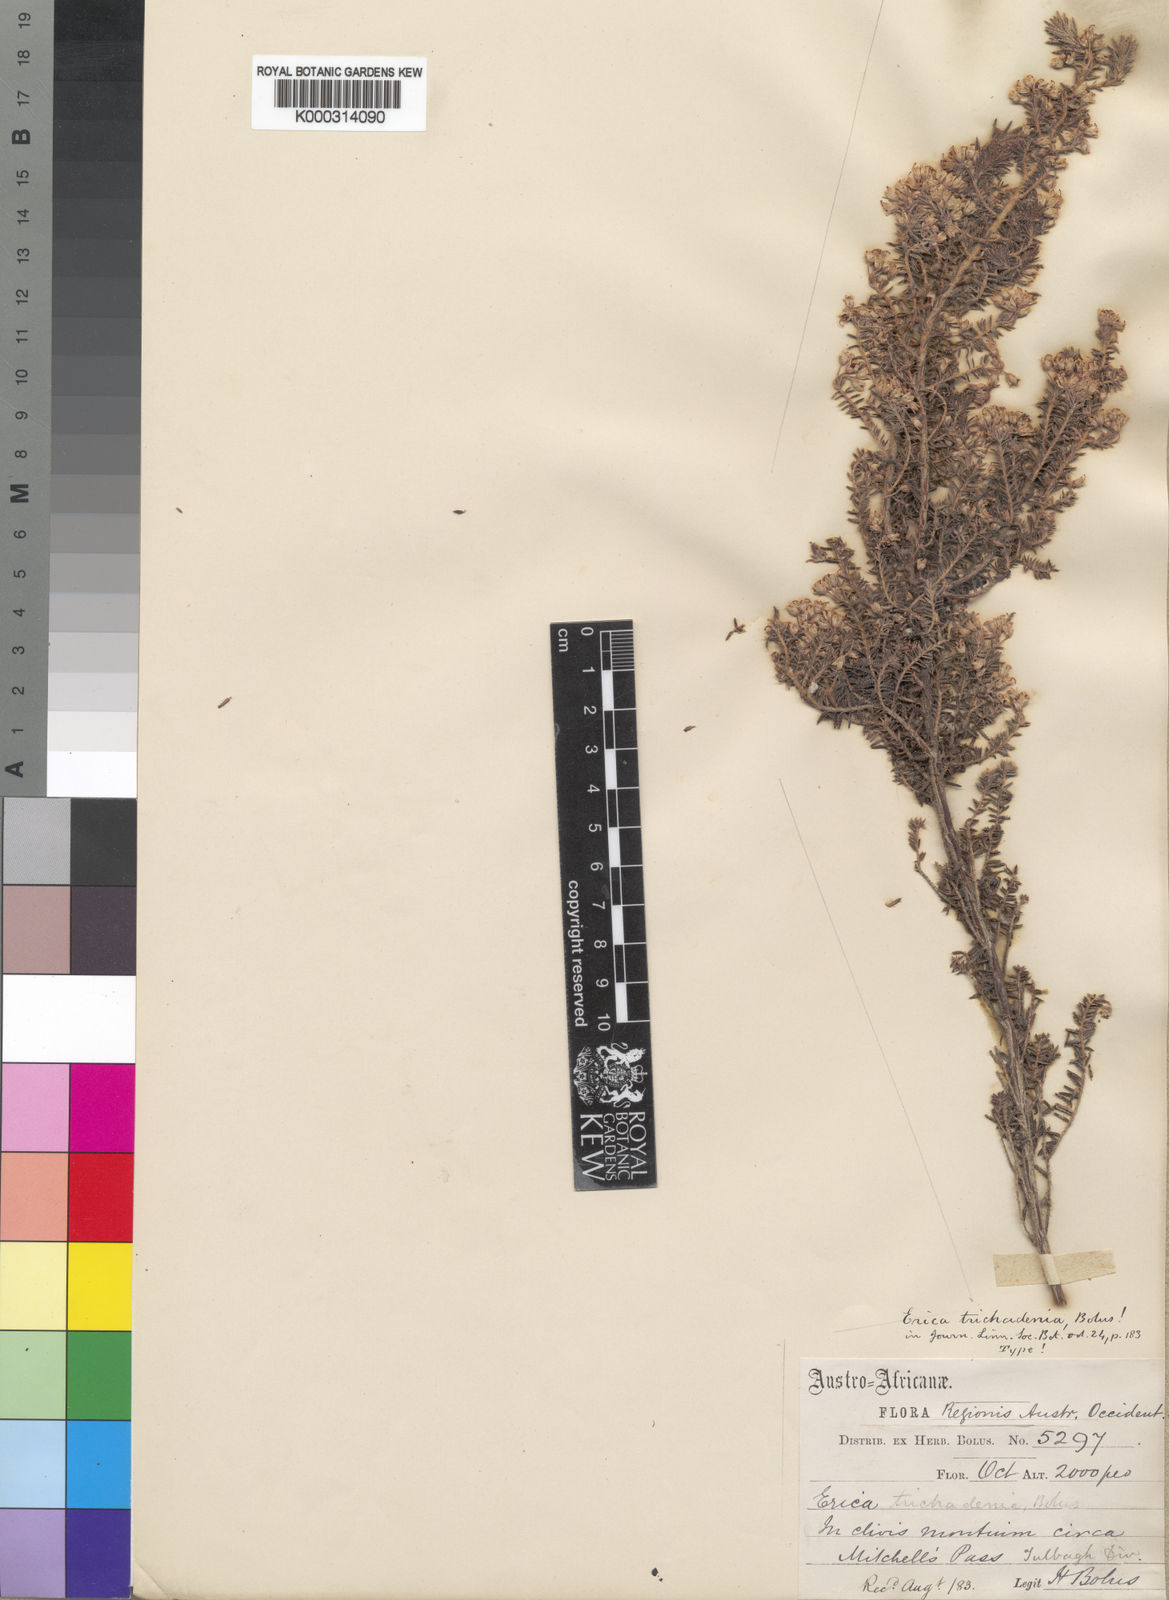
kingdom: Plantae
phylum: Tracheophyta
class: Magnoliopsida
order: Ericales
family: Ericaceae
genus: Erica
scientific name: Erica trichadenia
